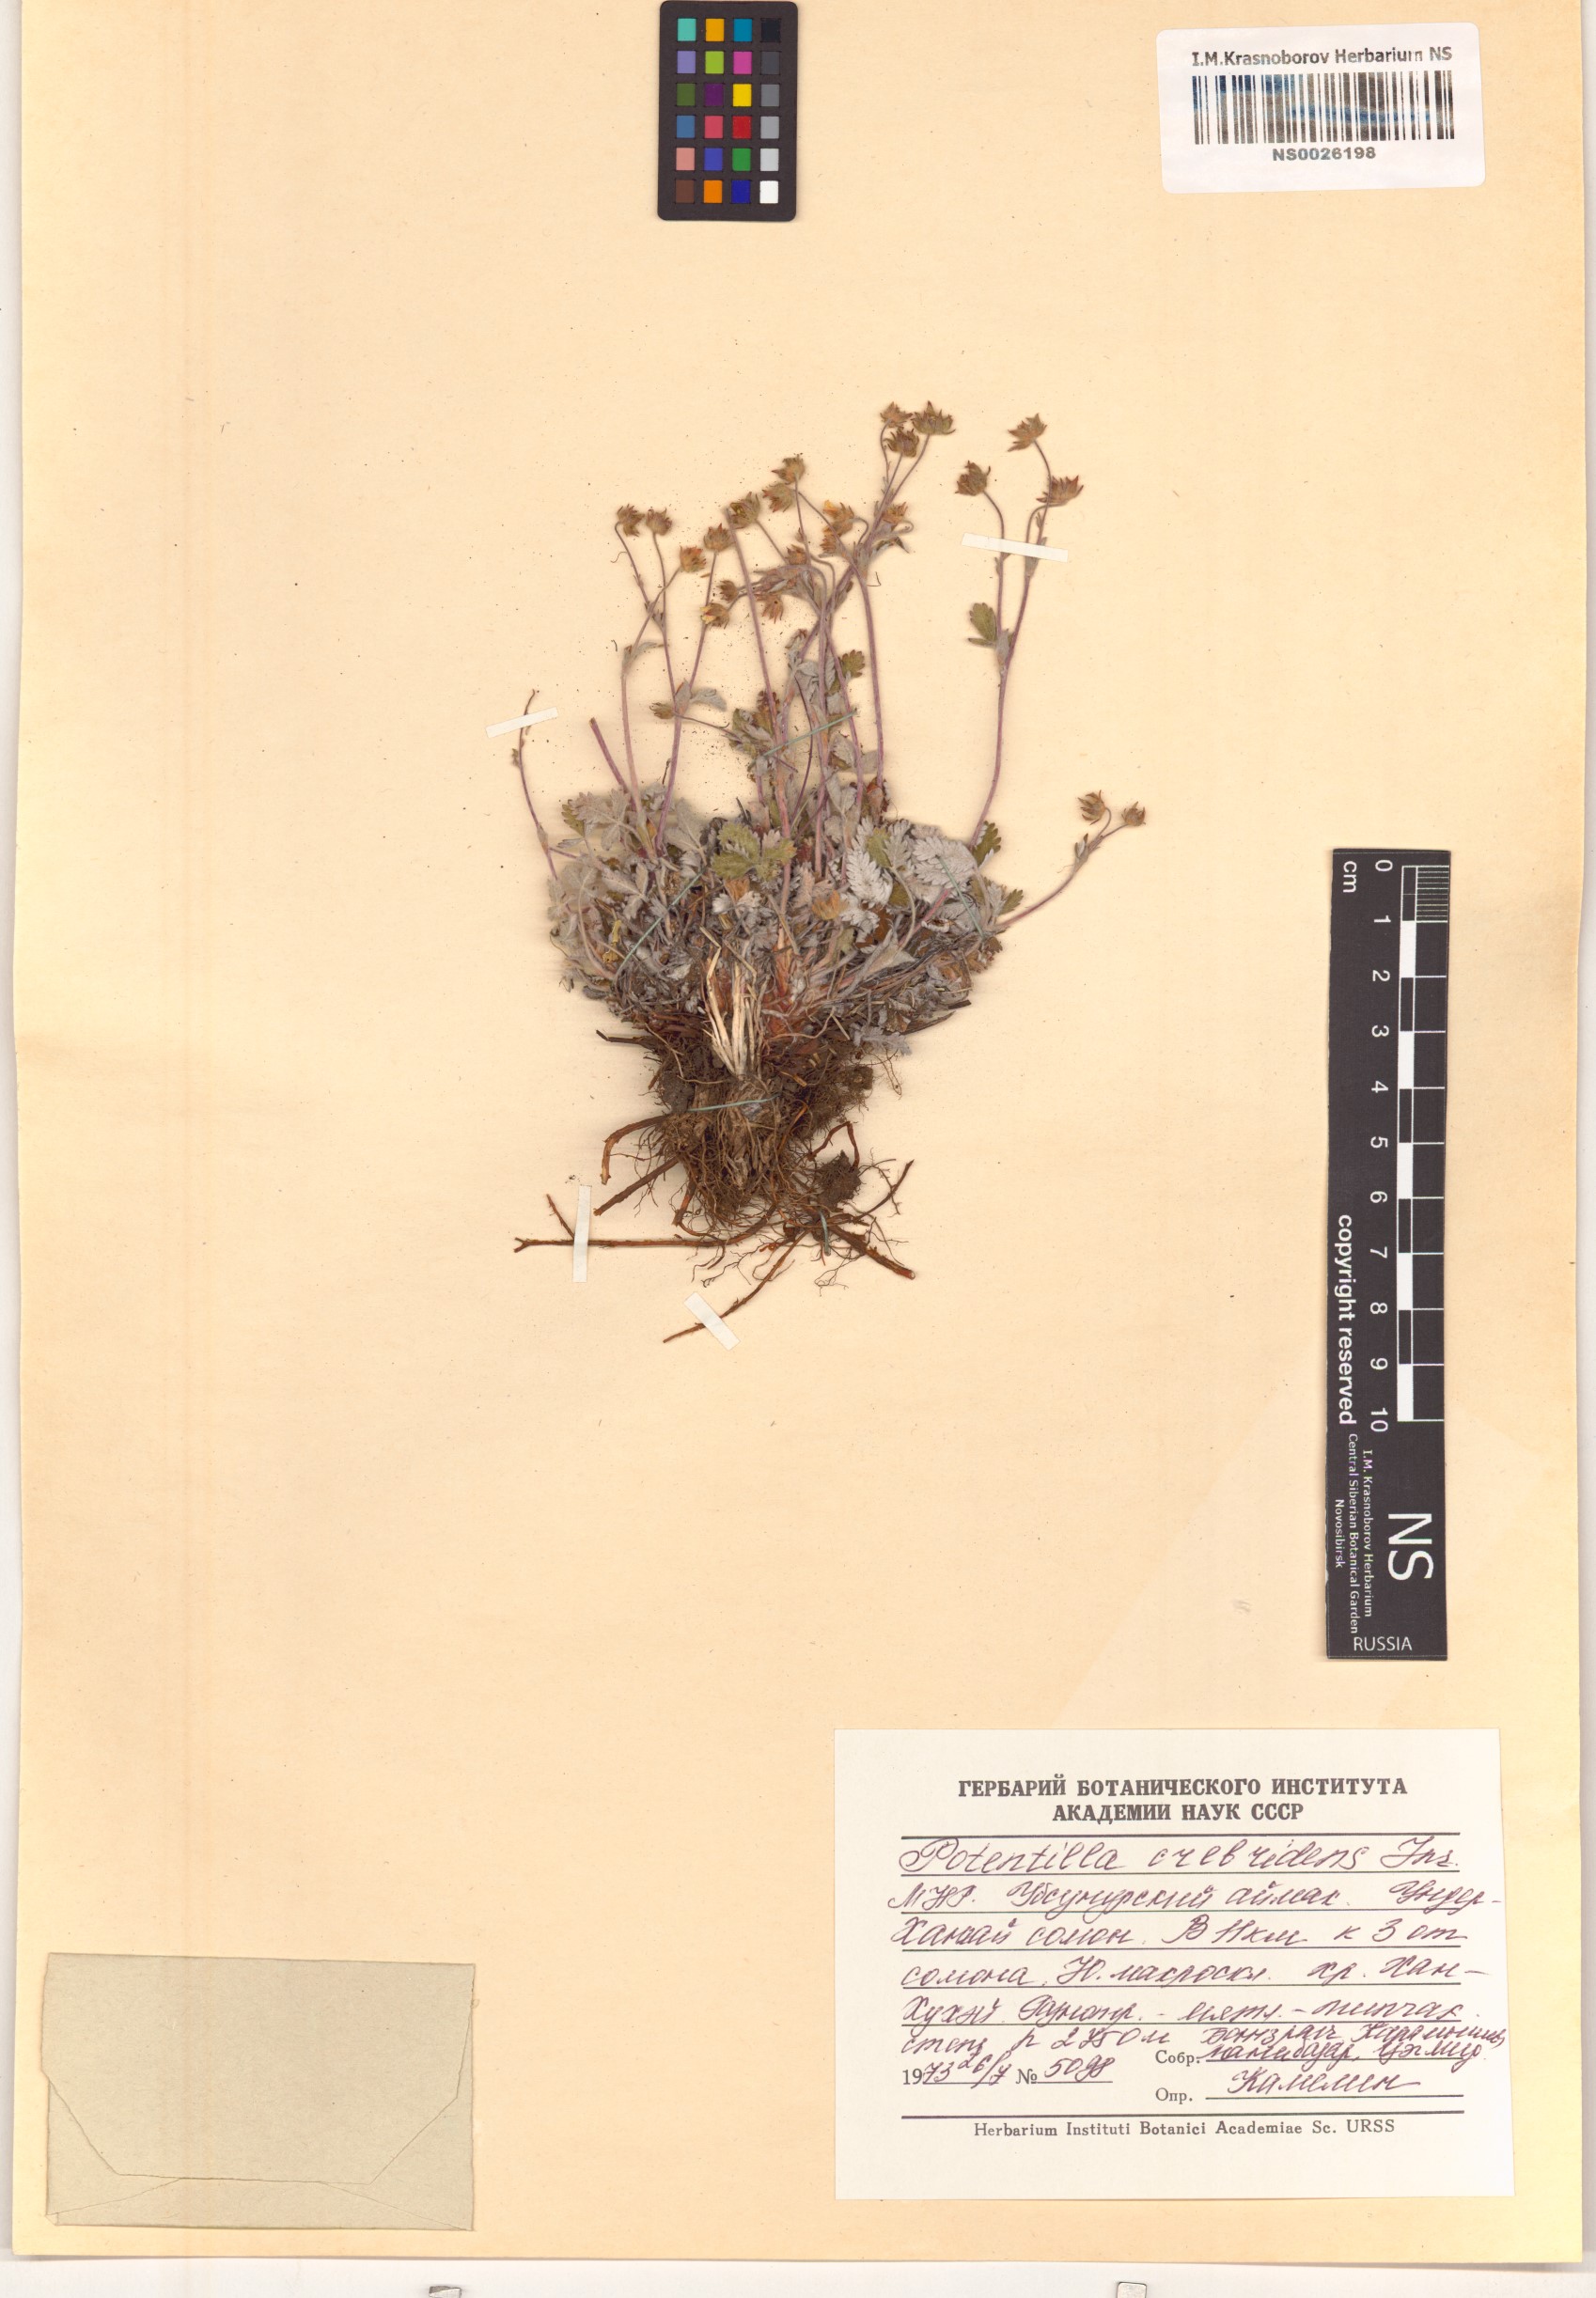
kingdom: Plantae
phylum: Tracheophyta
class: Magnoliopsida
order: Rosales
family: Rosaceae
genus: Potentilla
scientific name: Potentilla crebridens
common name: Congested cinquefoil
